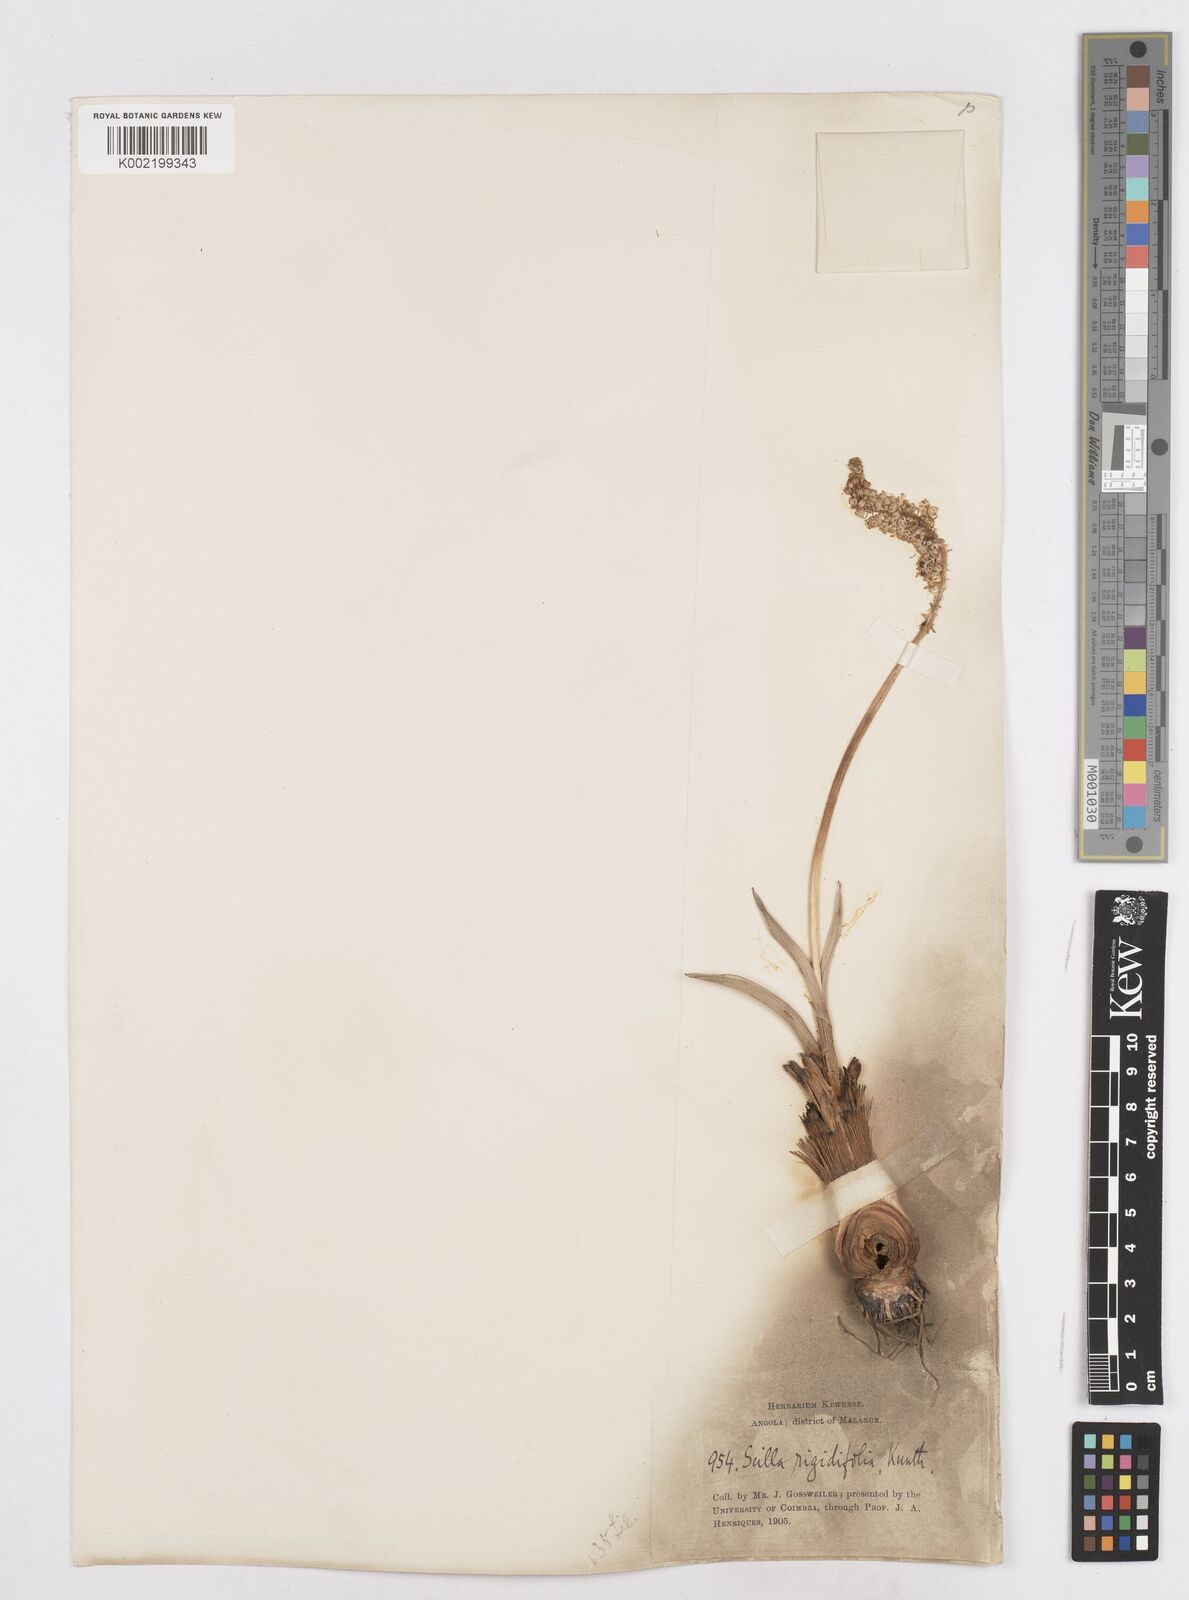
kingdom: Plantae
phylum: Tracheophyta
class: Liliopsida
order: Asparagales
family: Asparagaceae
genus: Schizocarphus
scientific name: Schizocarphus nervosus
